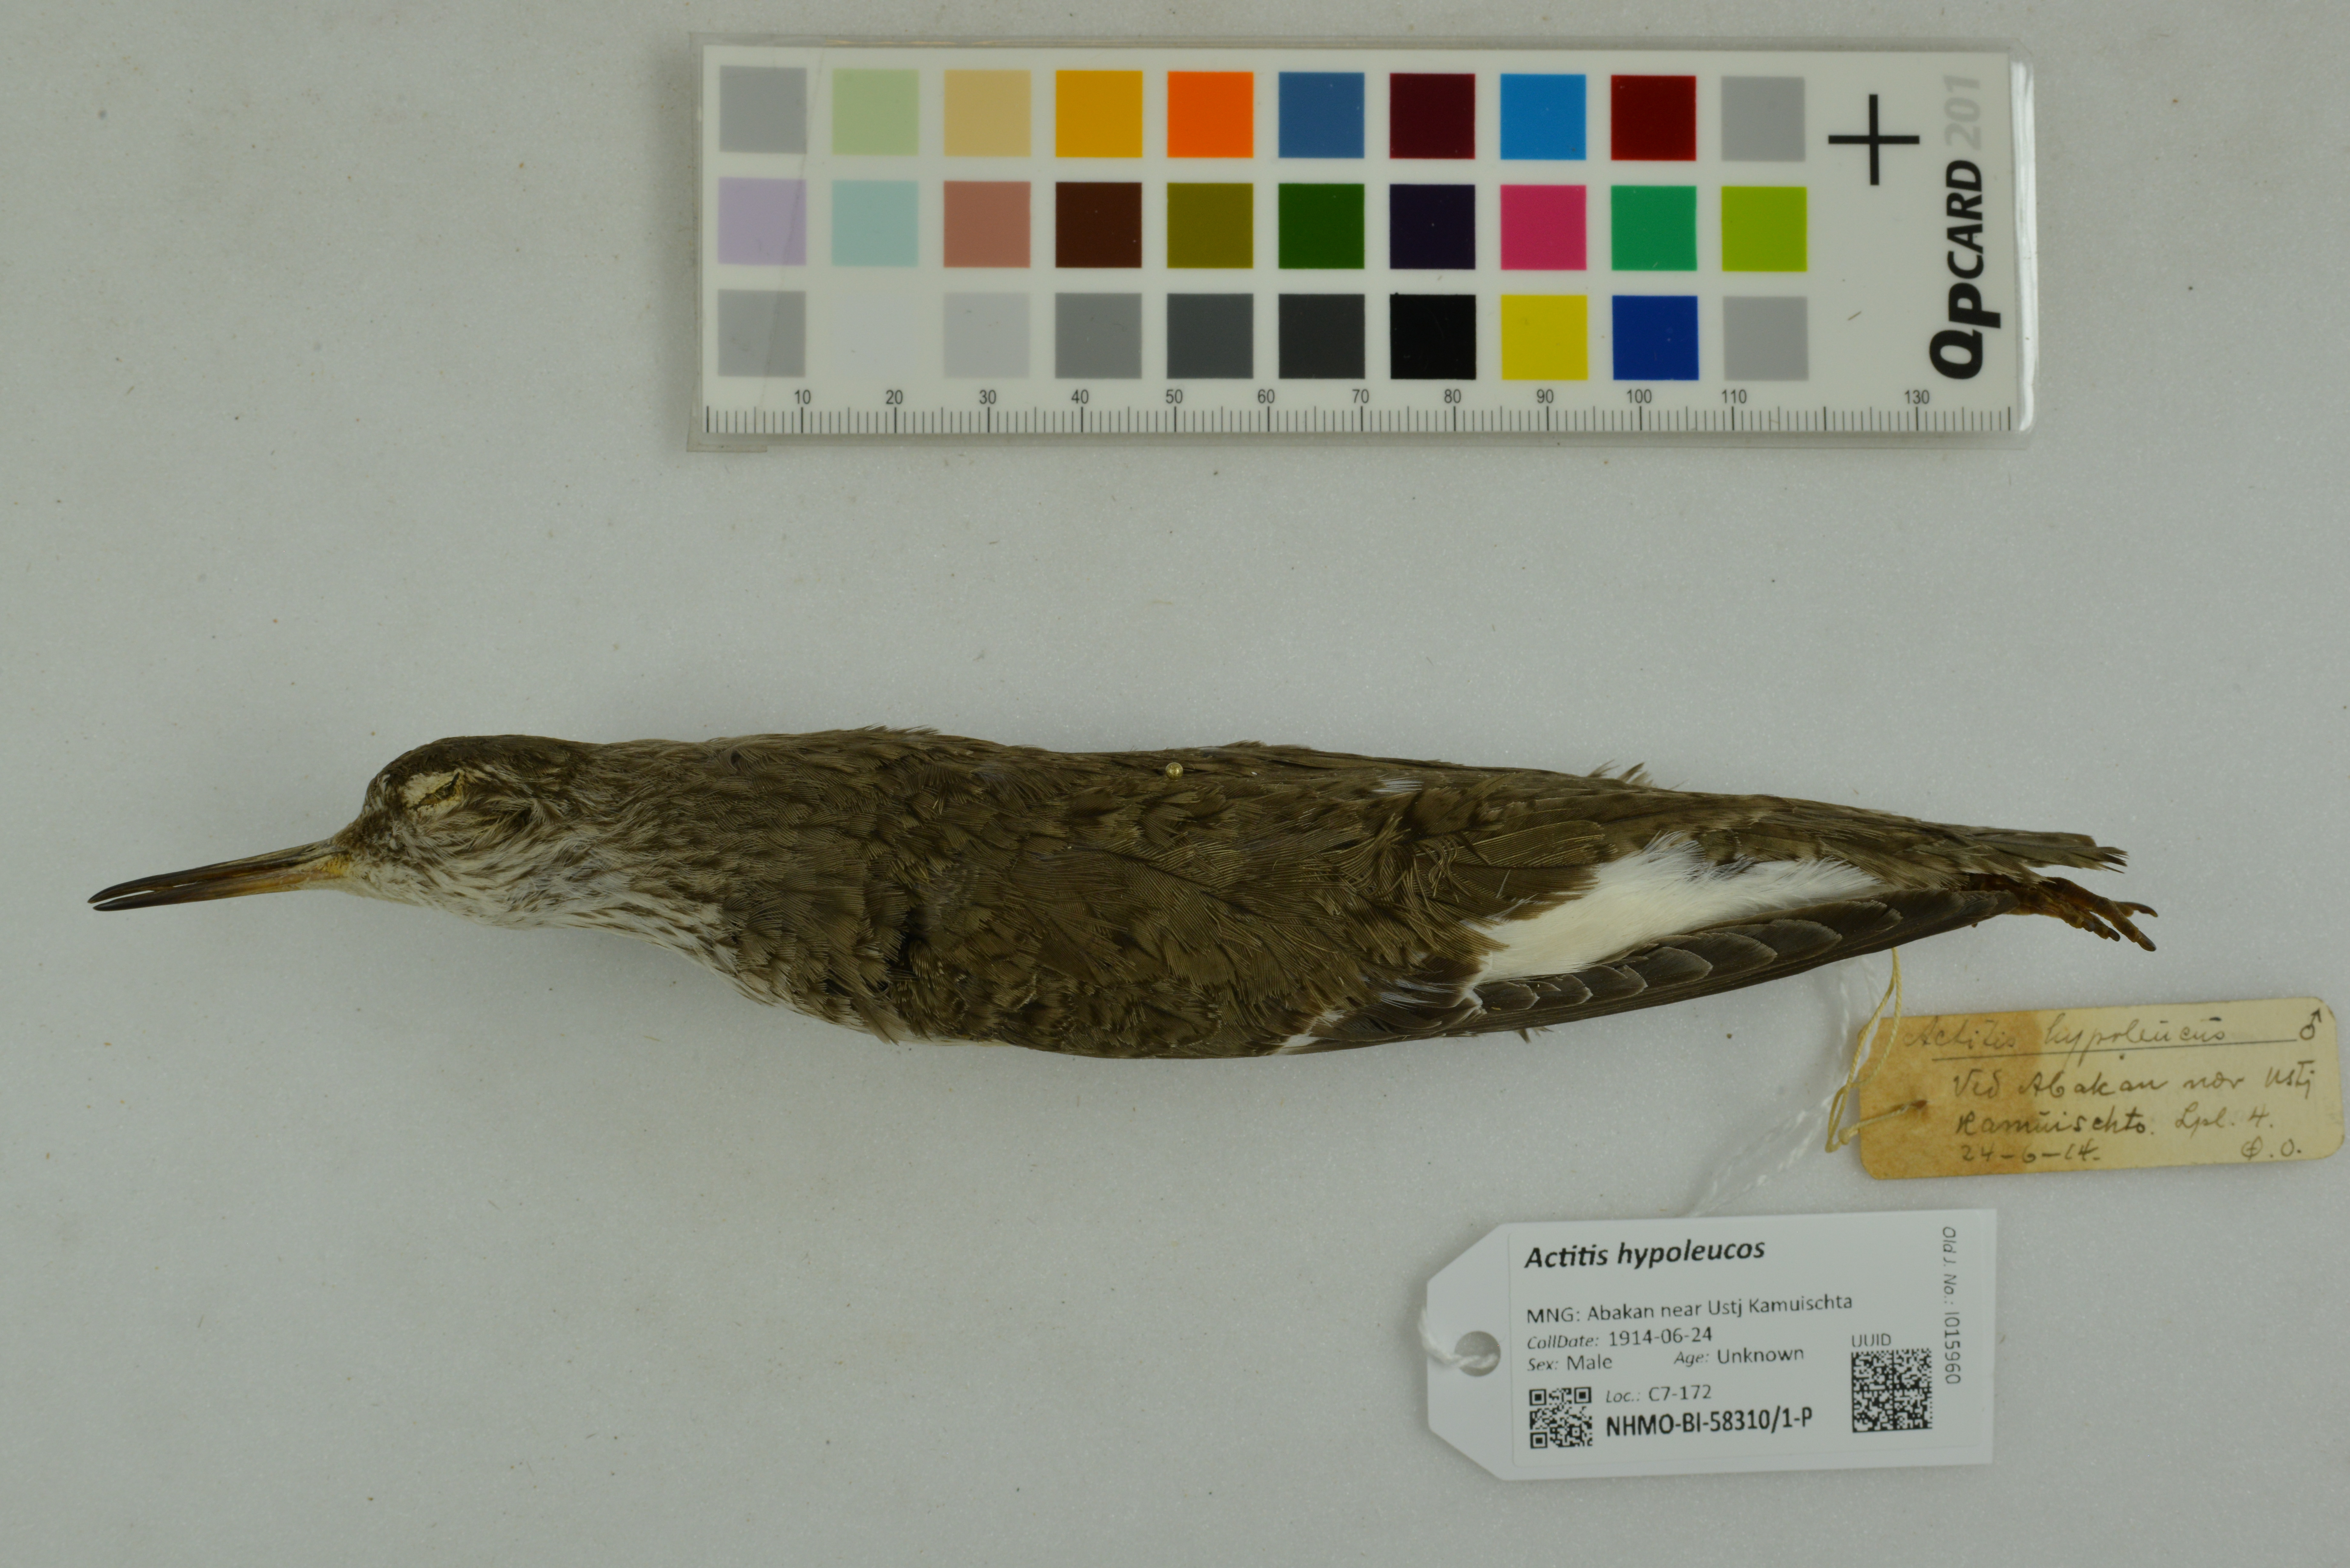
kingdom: Animalia
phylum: Chordata
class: Aves
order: Charadriiformes
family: Scolopacidae
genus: Actitis
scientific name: Actitis hypoleucos
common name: Common sandpiper
